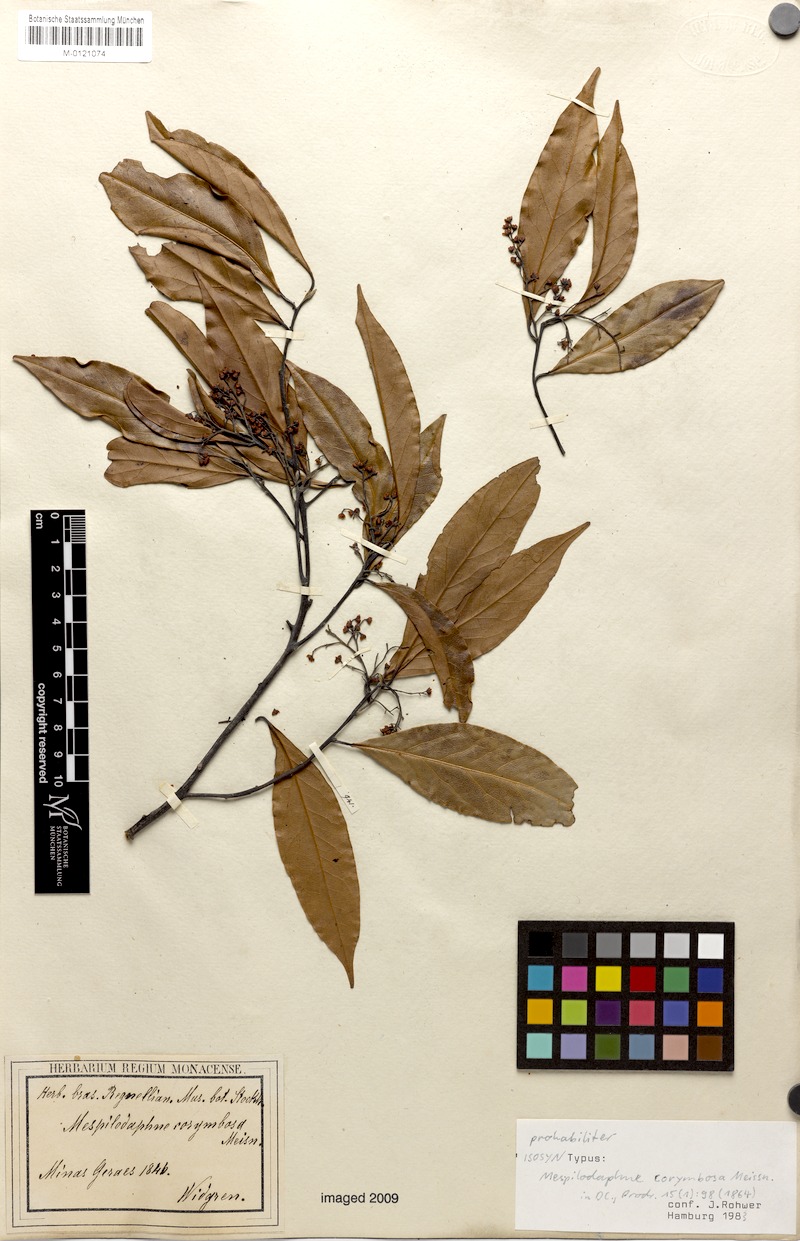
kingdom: Plantae
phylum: Tracheophyta
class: Magnoliopsida
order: Laurales
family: Lauraceae
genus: Mespilodaphne
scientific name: Mespilodaphne corymbosa
